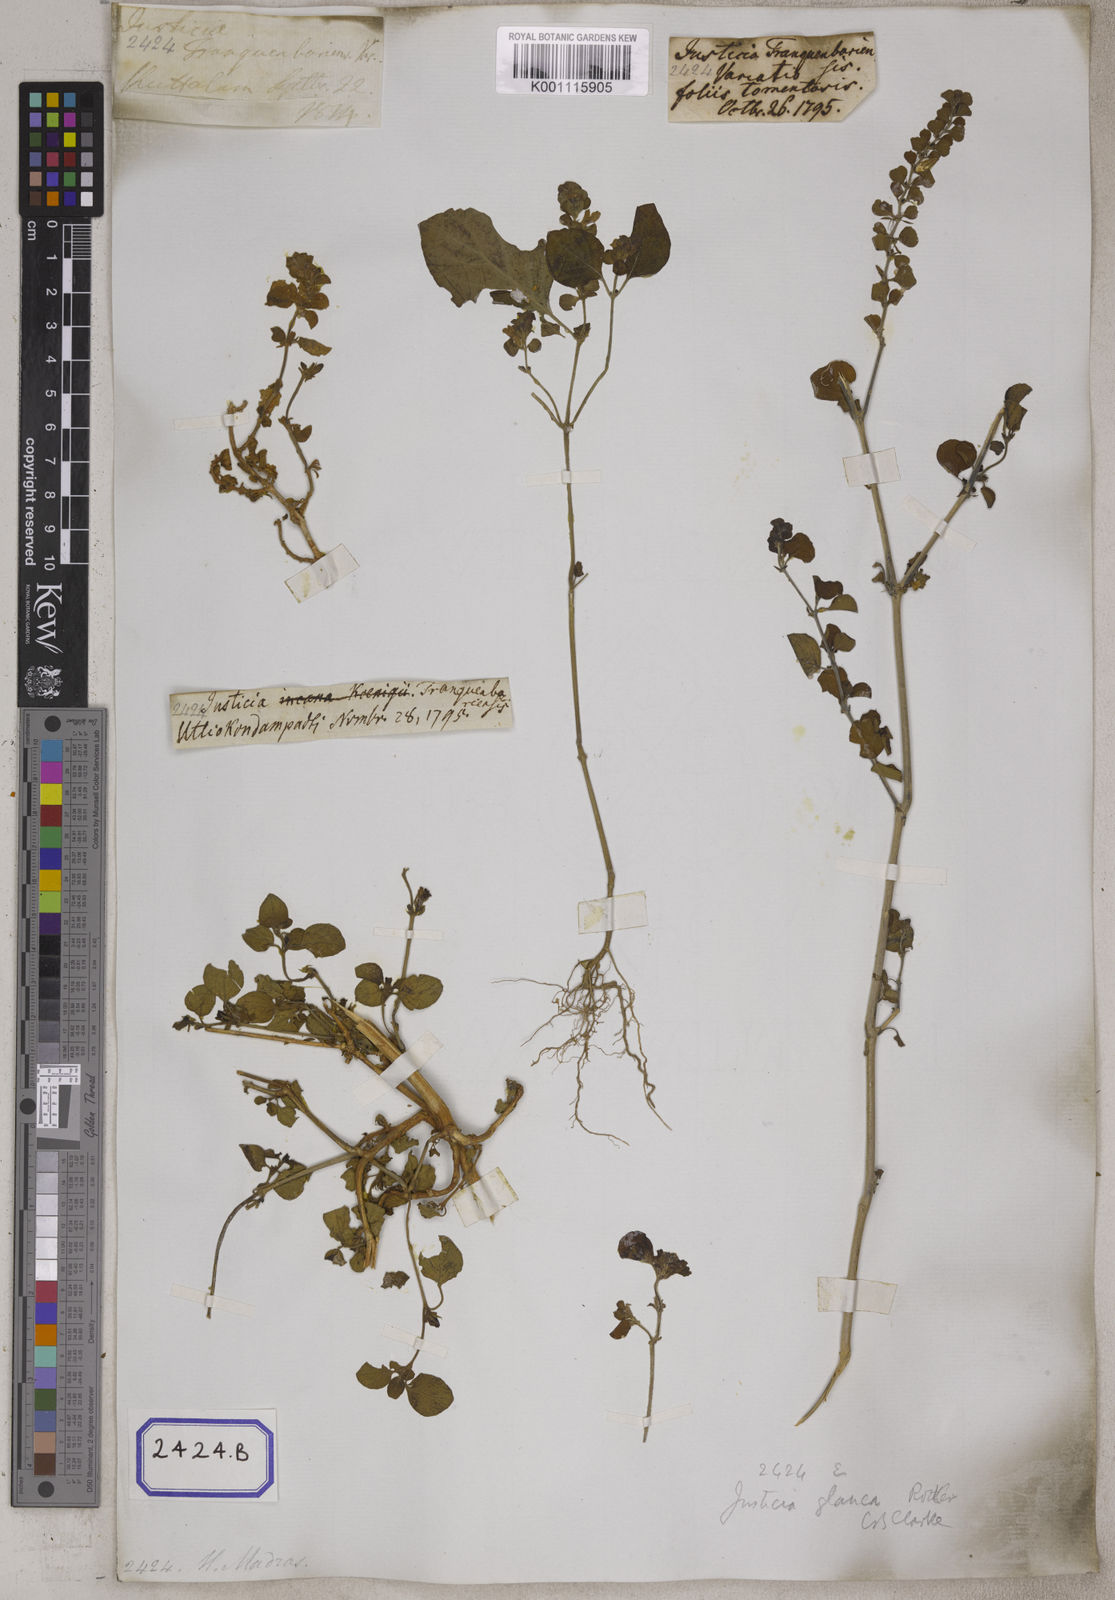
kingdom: Plantae
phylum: Tracheophyta
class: Magnoliopsida
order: Lamiales
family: Acanthaceae
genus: Justicia
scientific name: Justicia tranquebariensis
